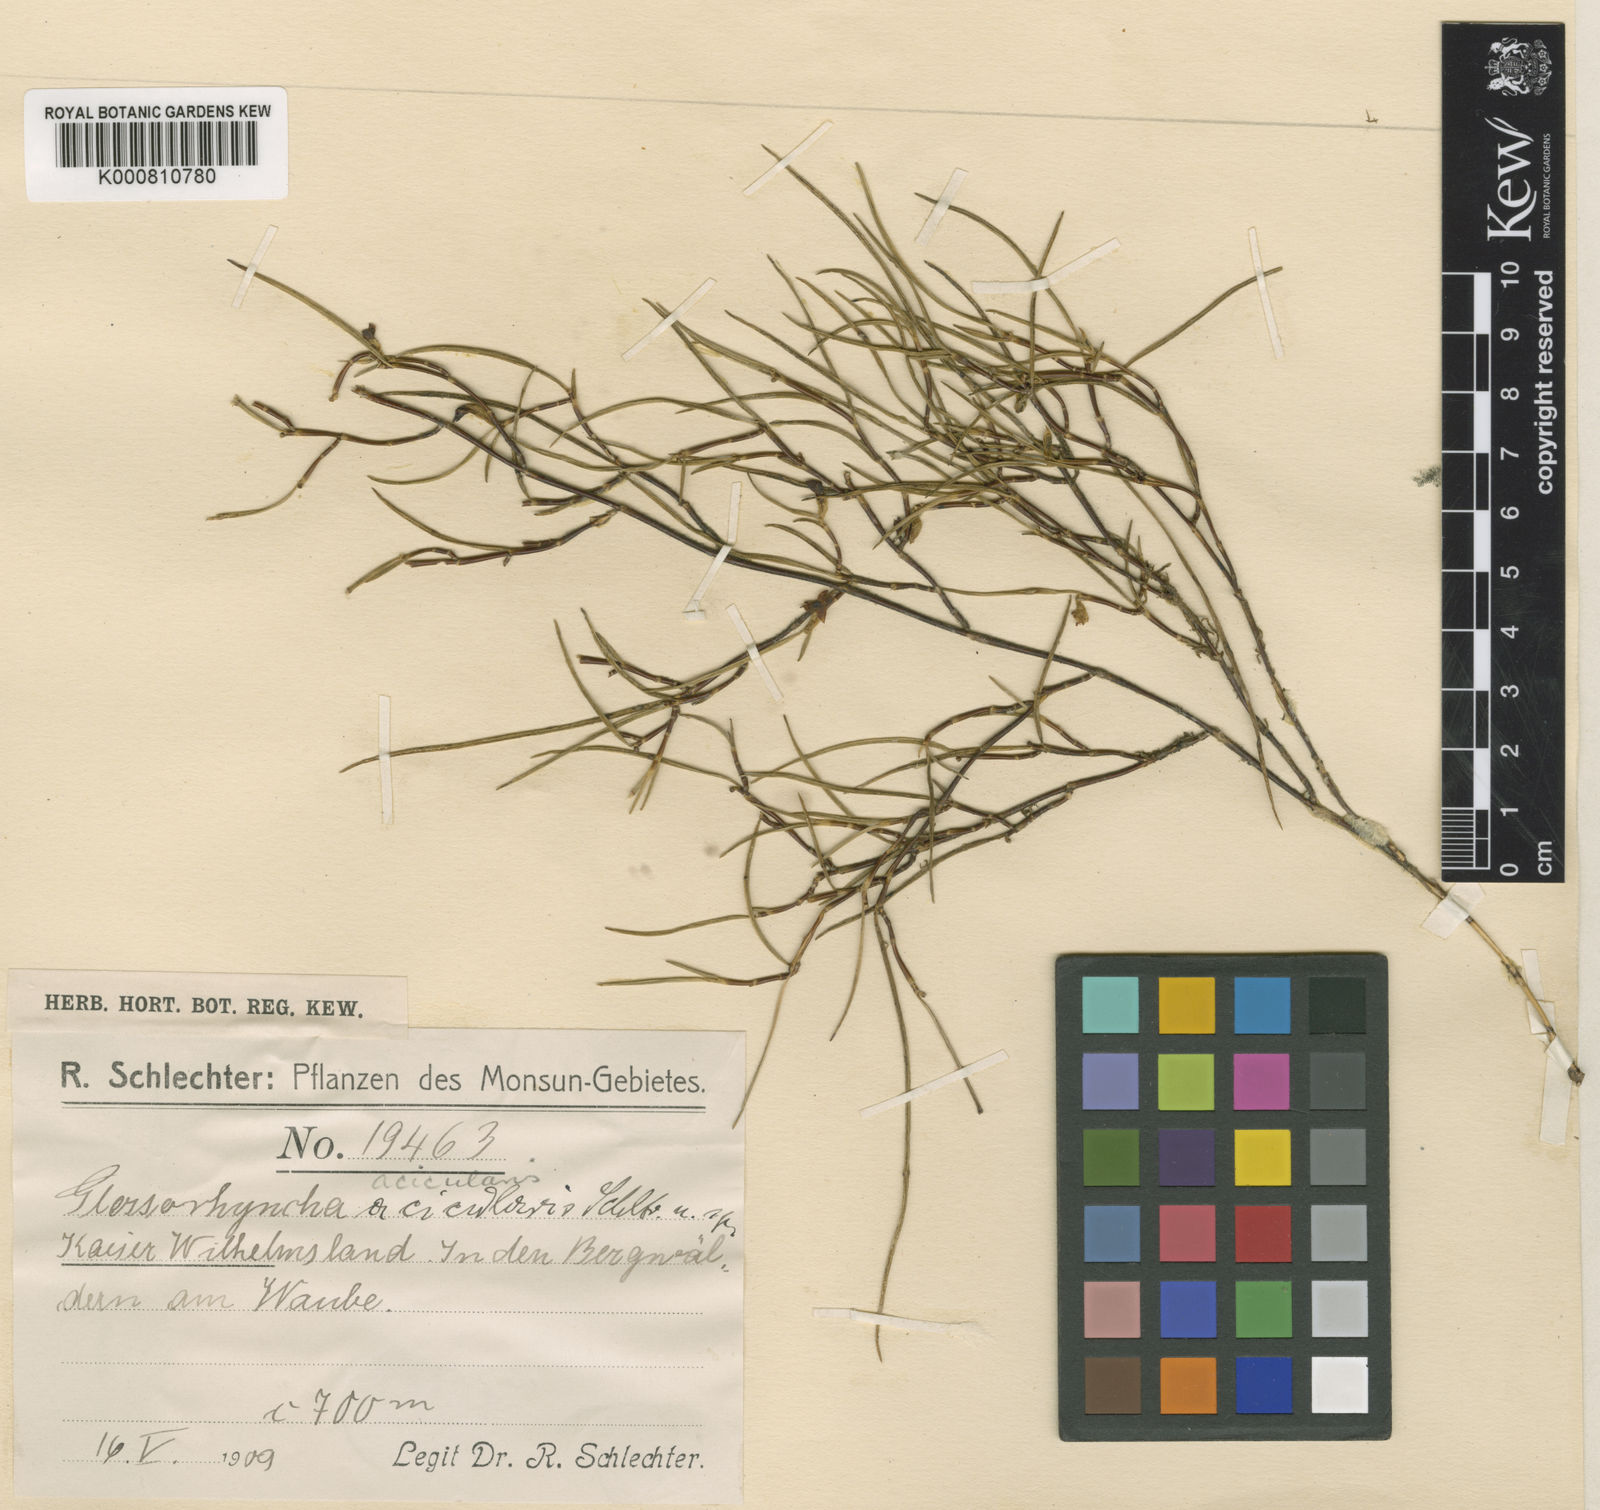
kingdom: Plantae
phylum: Tracheophyta
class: Liliopsida
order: Asparagales
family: Orchidaceae
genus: Glomera
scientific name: Glomera bismarckiensis
